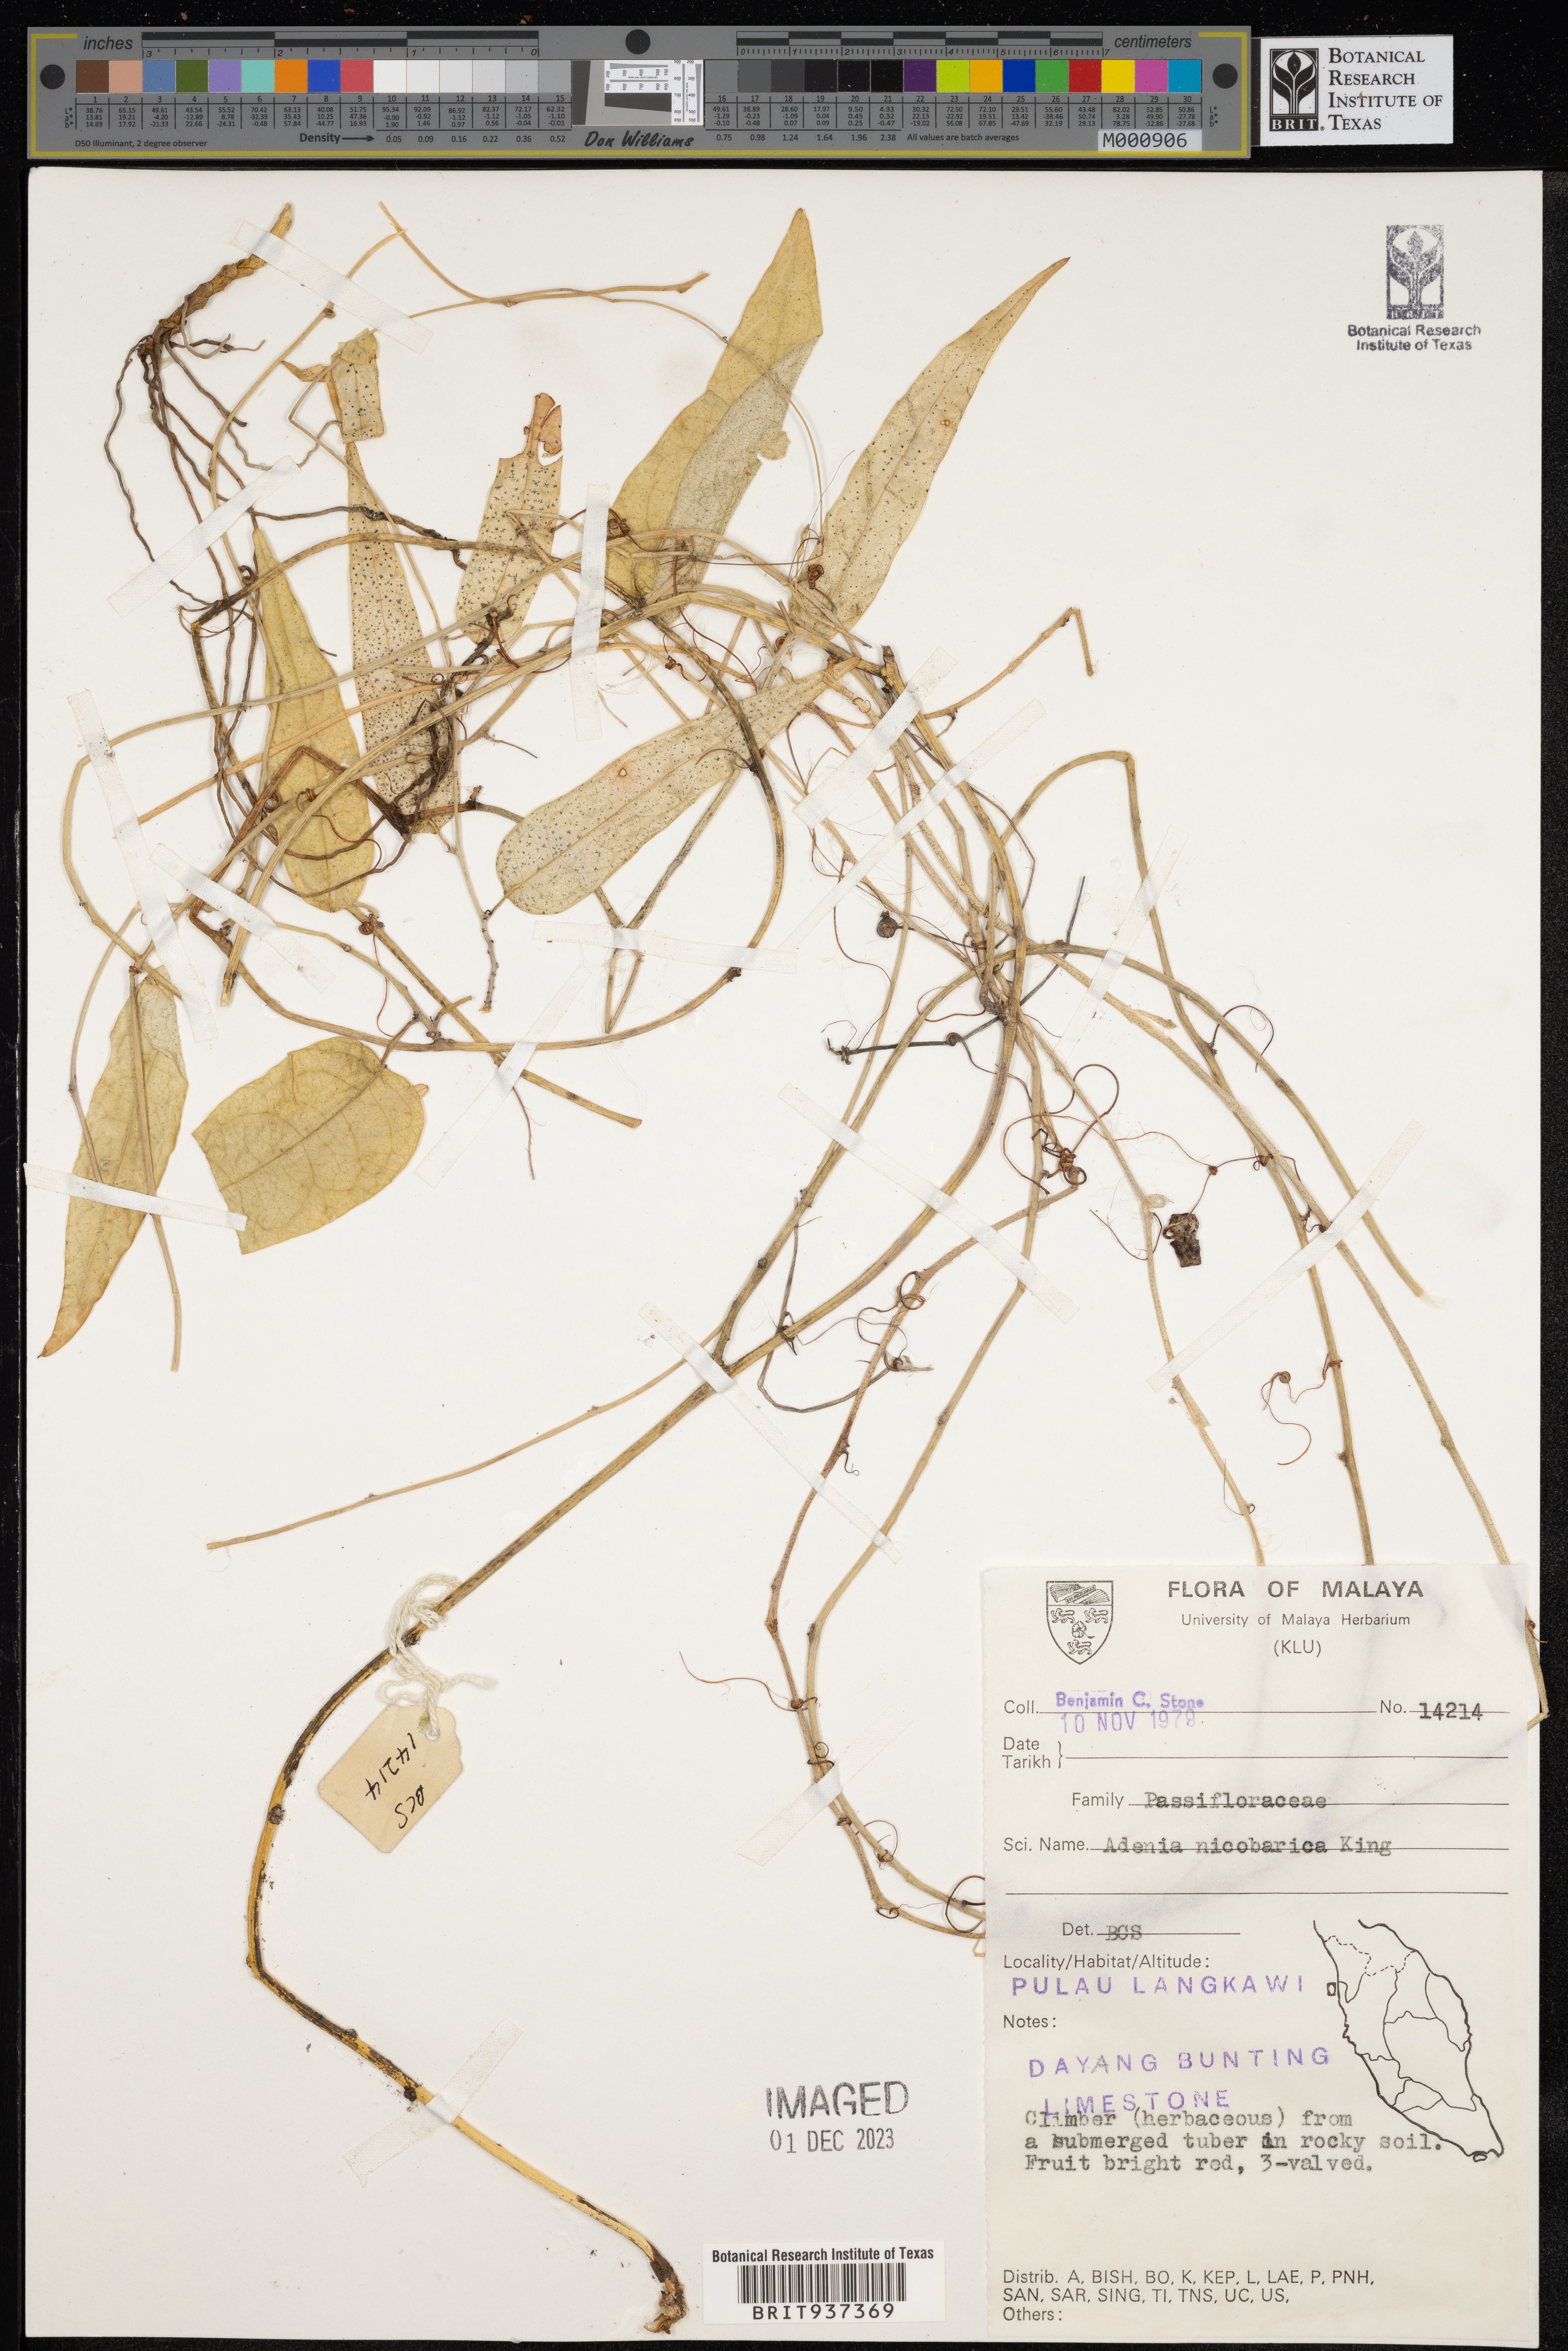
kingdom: Plantae
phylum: Tracheophyta
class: Magnoliopsida
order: Malpighiales
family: Passifloraceae
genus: Adenia
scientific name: Adenia
